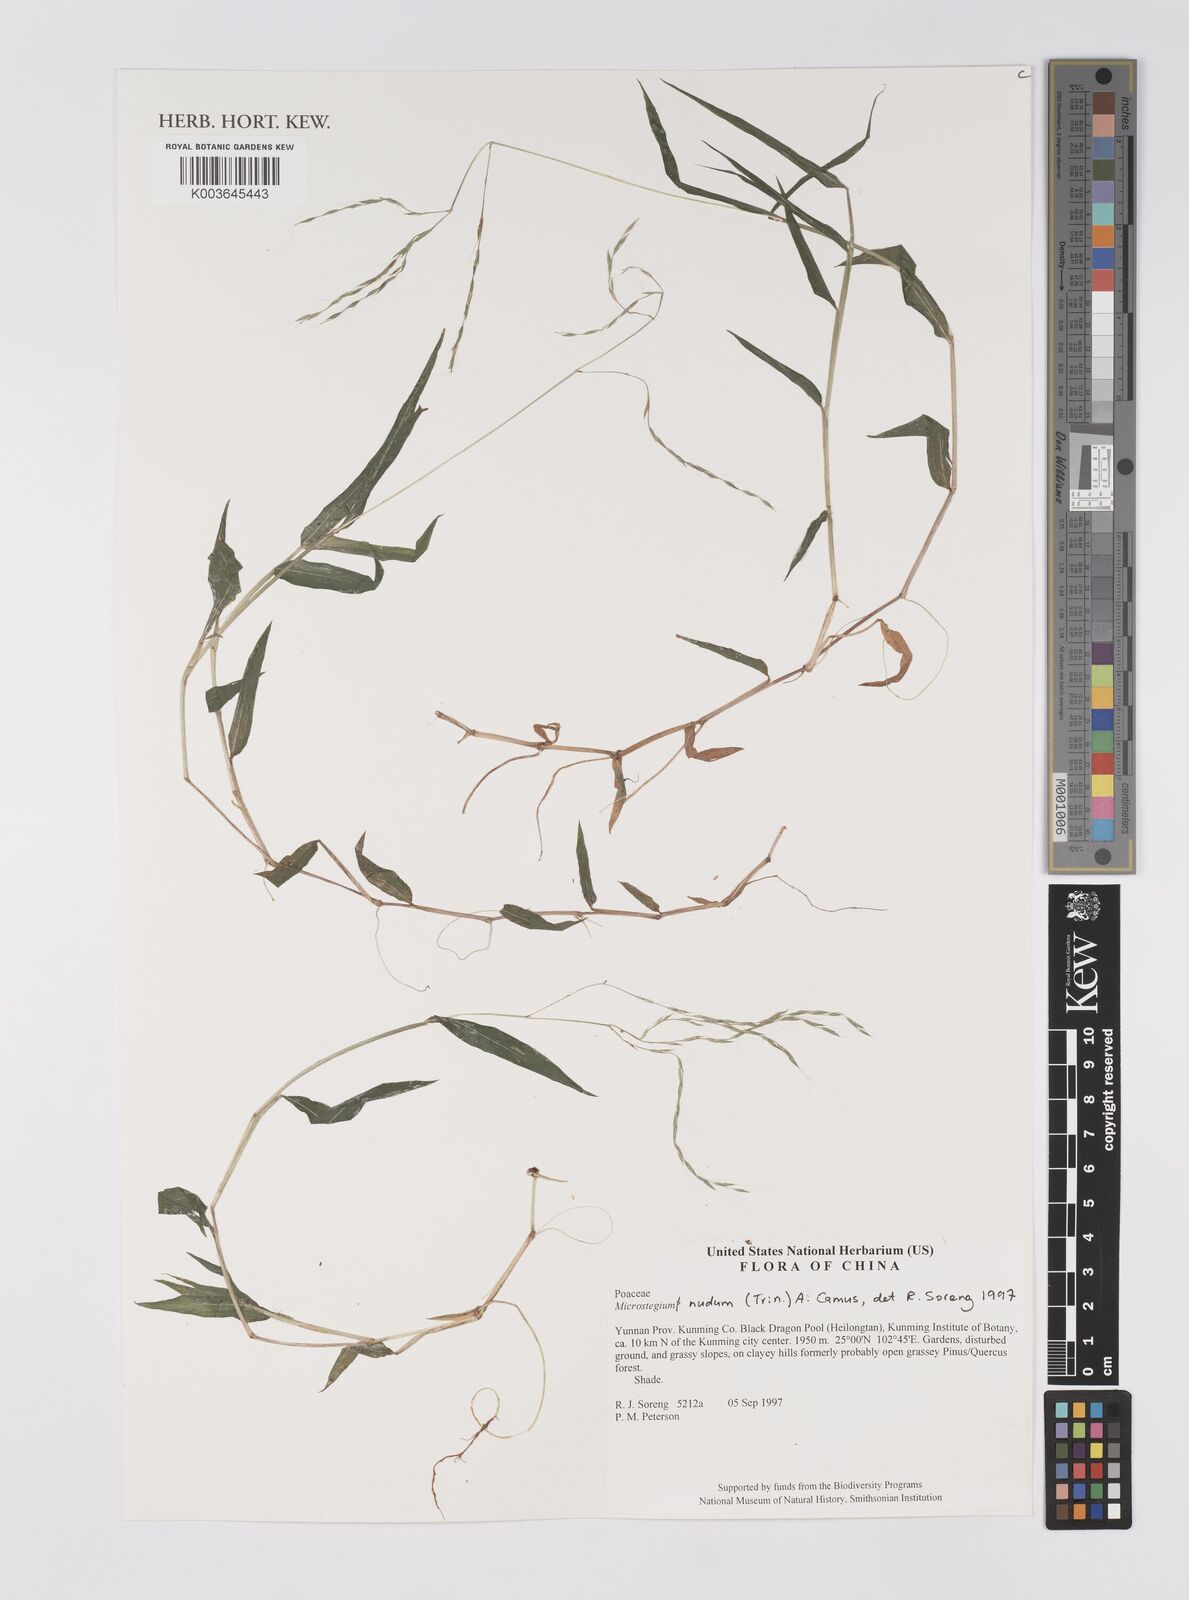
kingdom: Plantae
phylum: Tracheophyta
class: Liliopsida
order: Poales
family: Poaceae
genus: Microstegium
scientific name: Microstegium nudum
